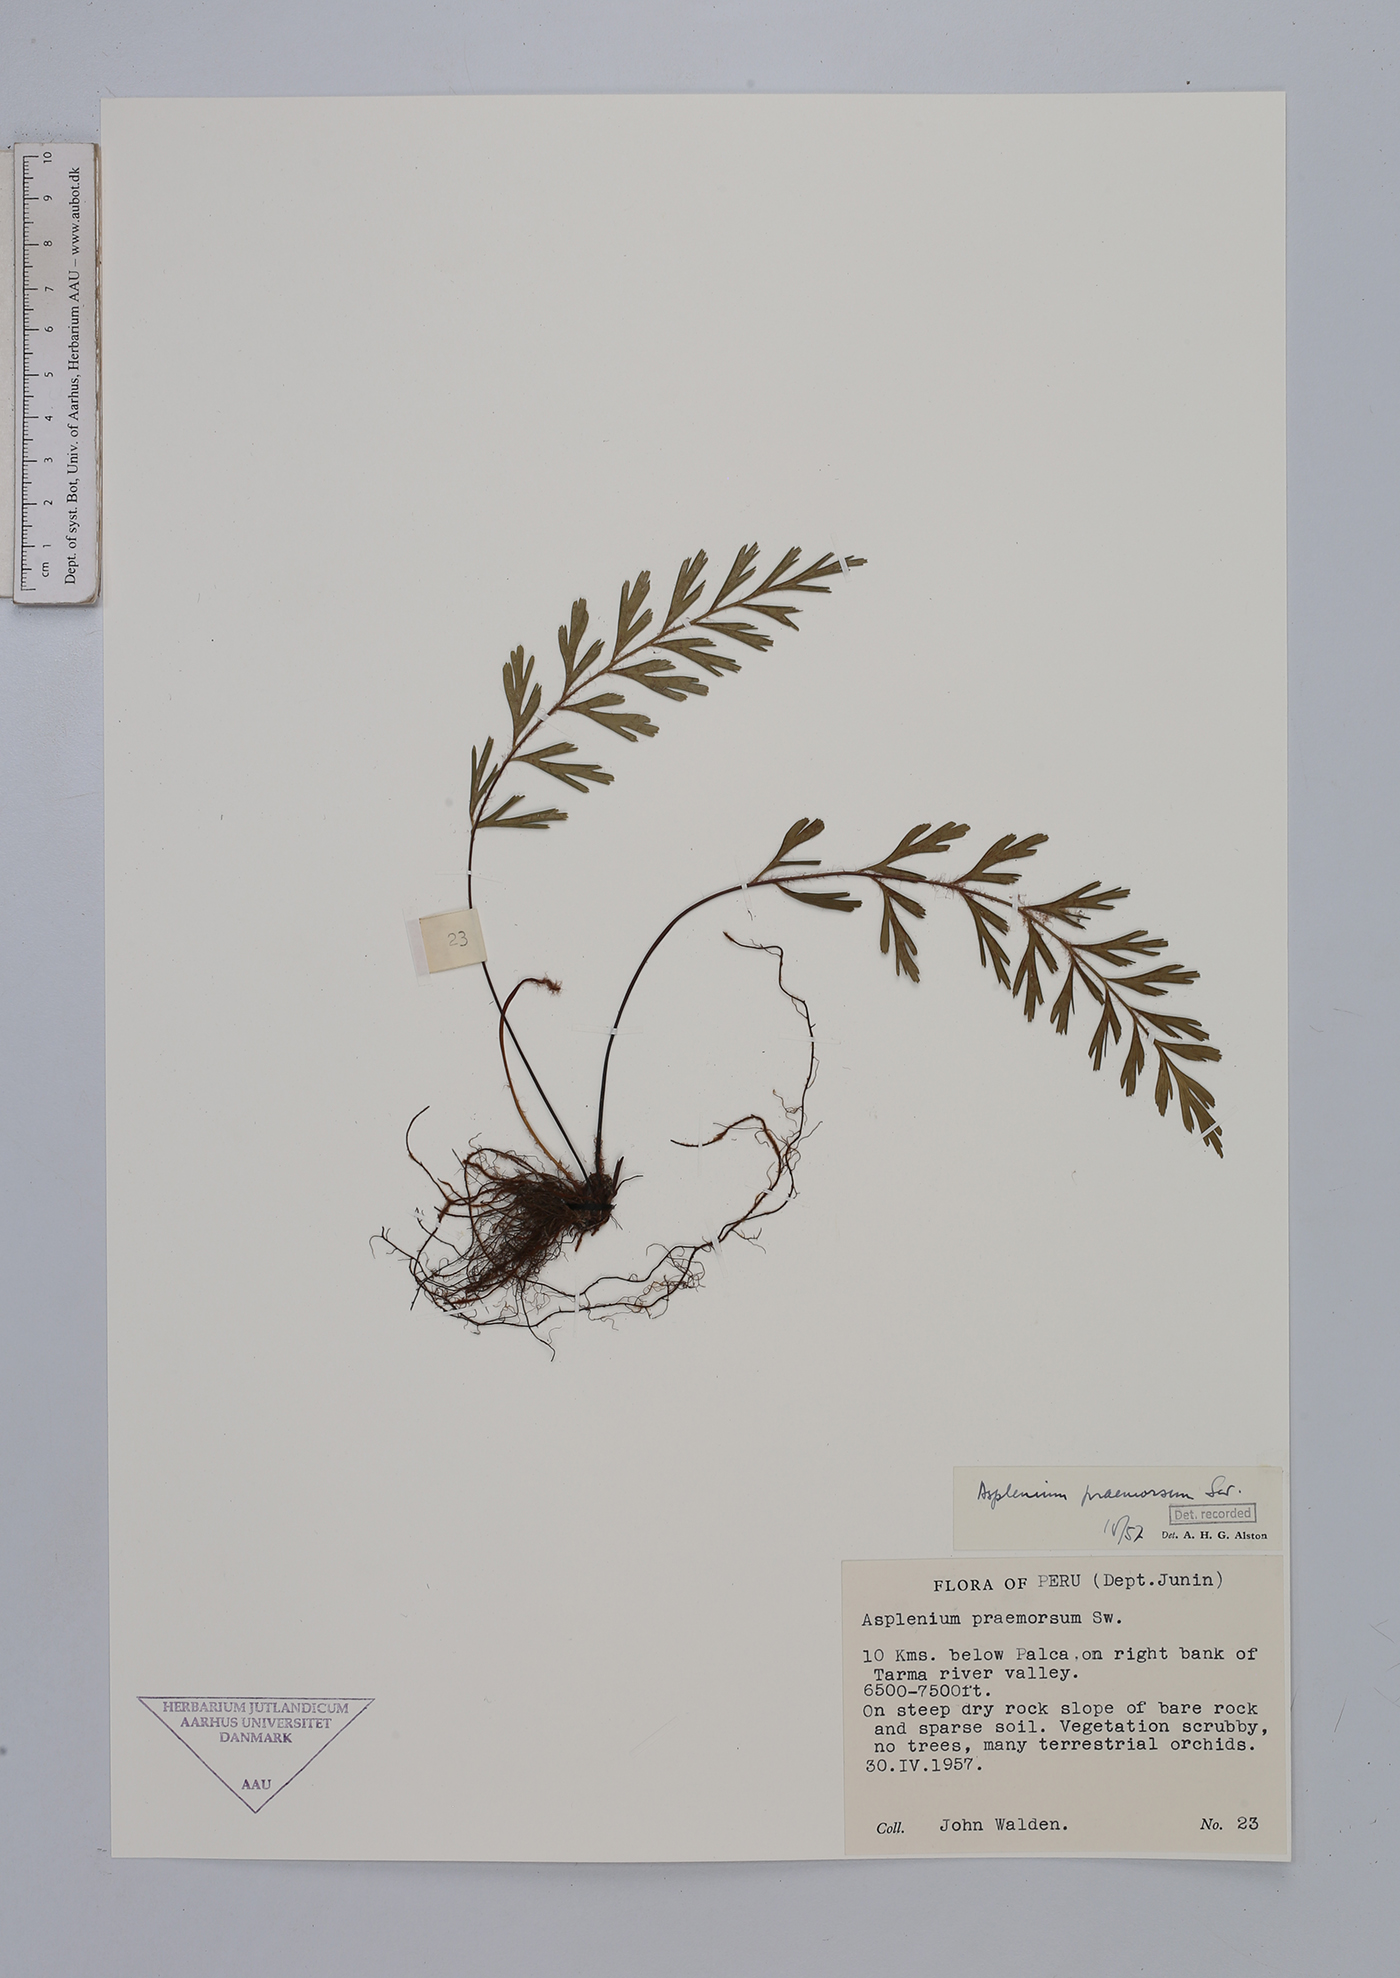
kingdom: Plantae
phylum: Tracheophyta
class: Polypodiopsida
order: Polypodiales
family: Aspleniaceae
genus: Asplenium
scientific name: Asplenium praemorsum
